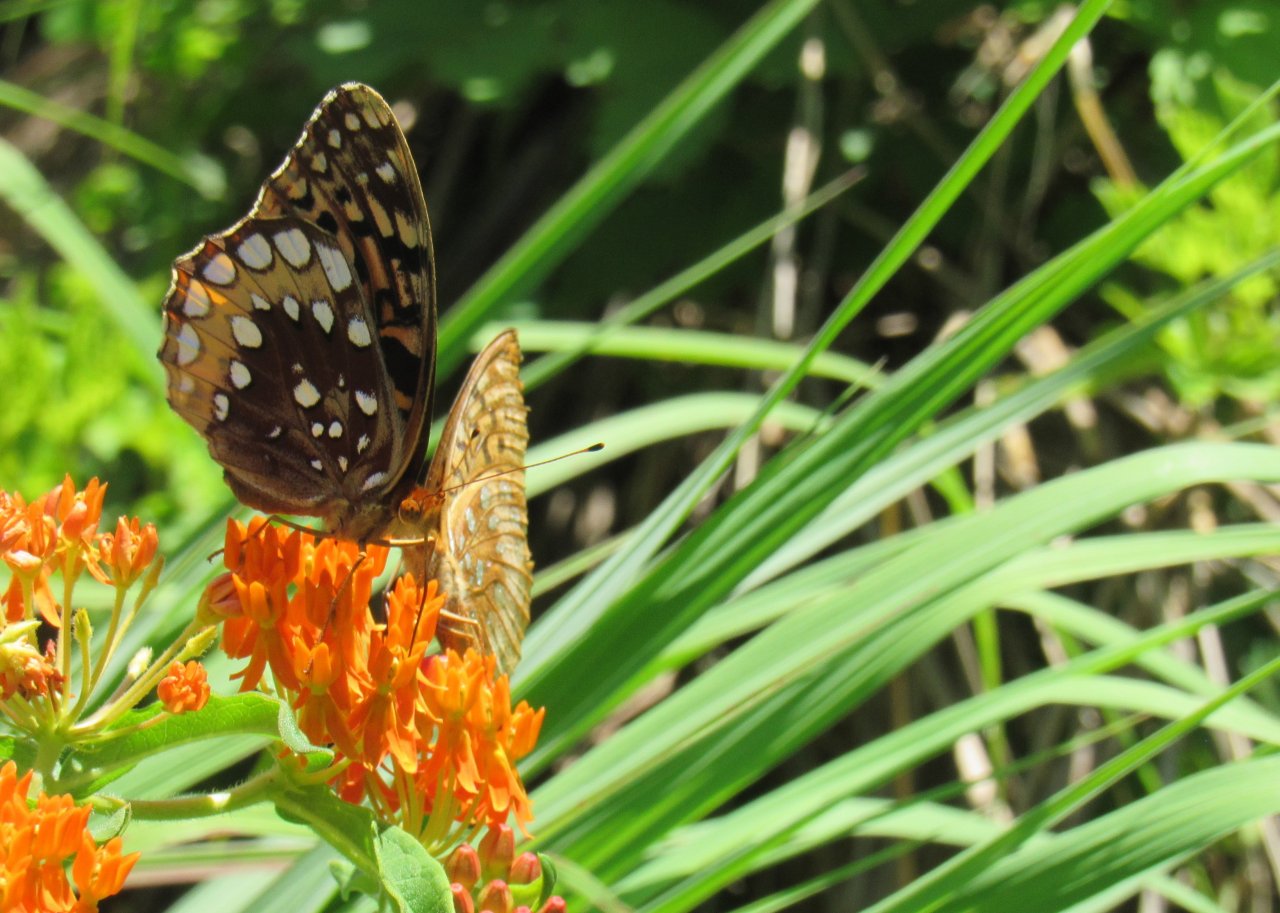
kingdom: Animalia
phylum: Arthropoda
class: Insecta
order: Lepidoptera
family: Nymphalidae
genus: Speyeria
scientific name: Speyeria cybele
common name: Great Spangled Fritillary
